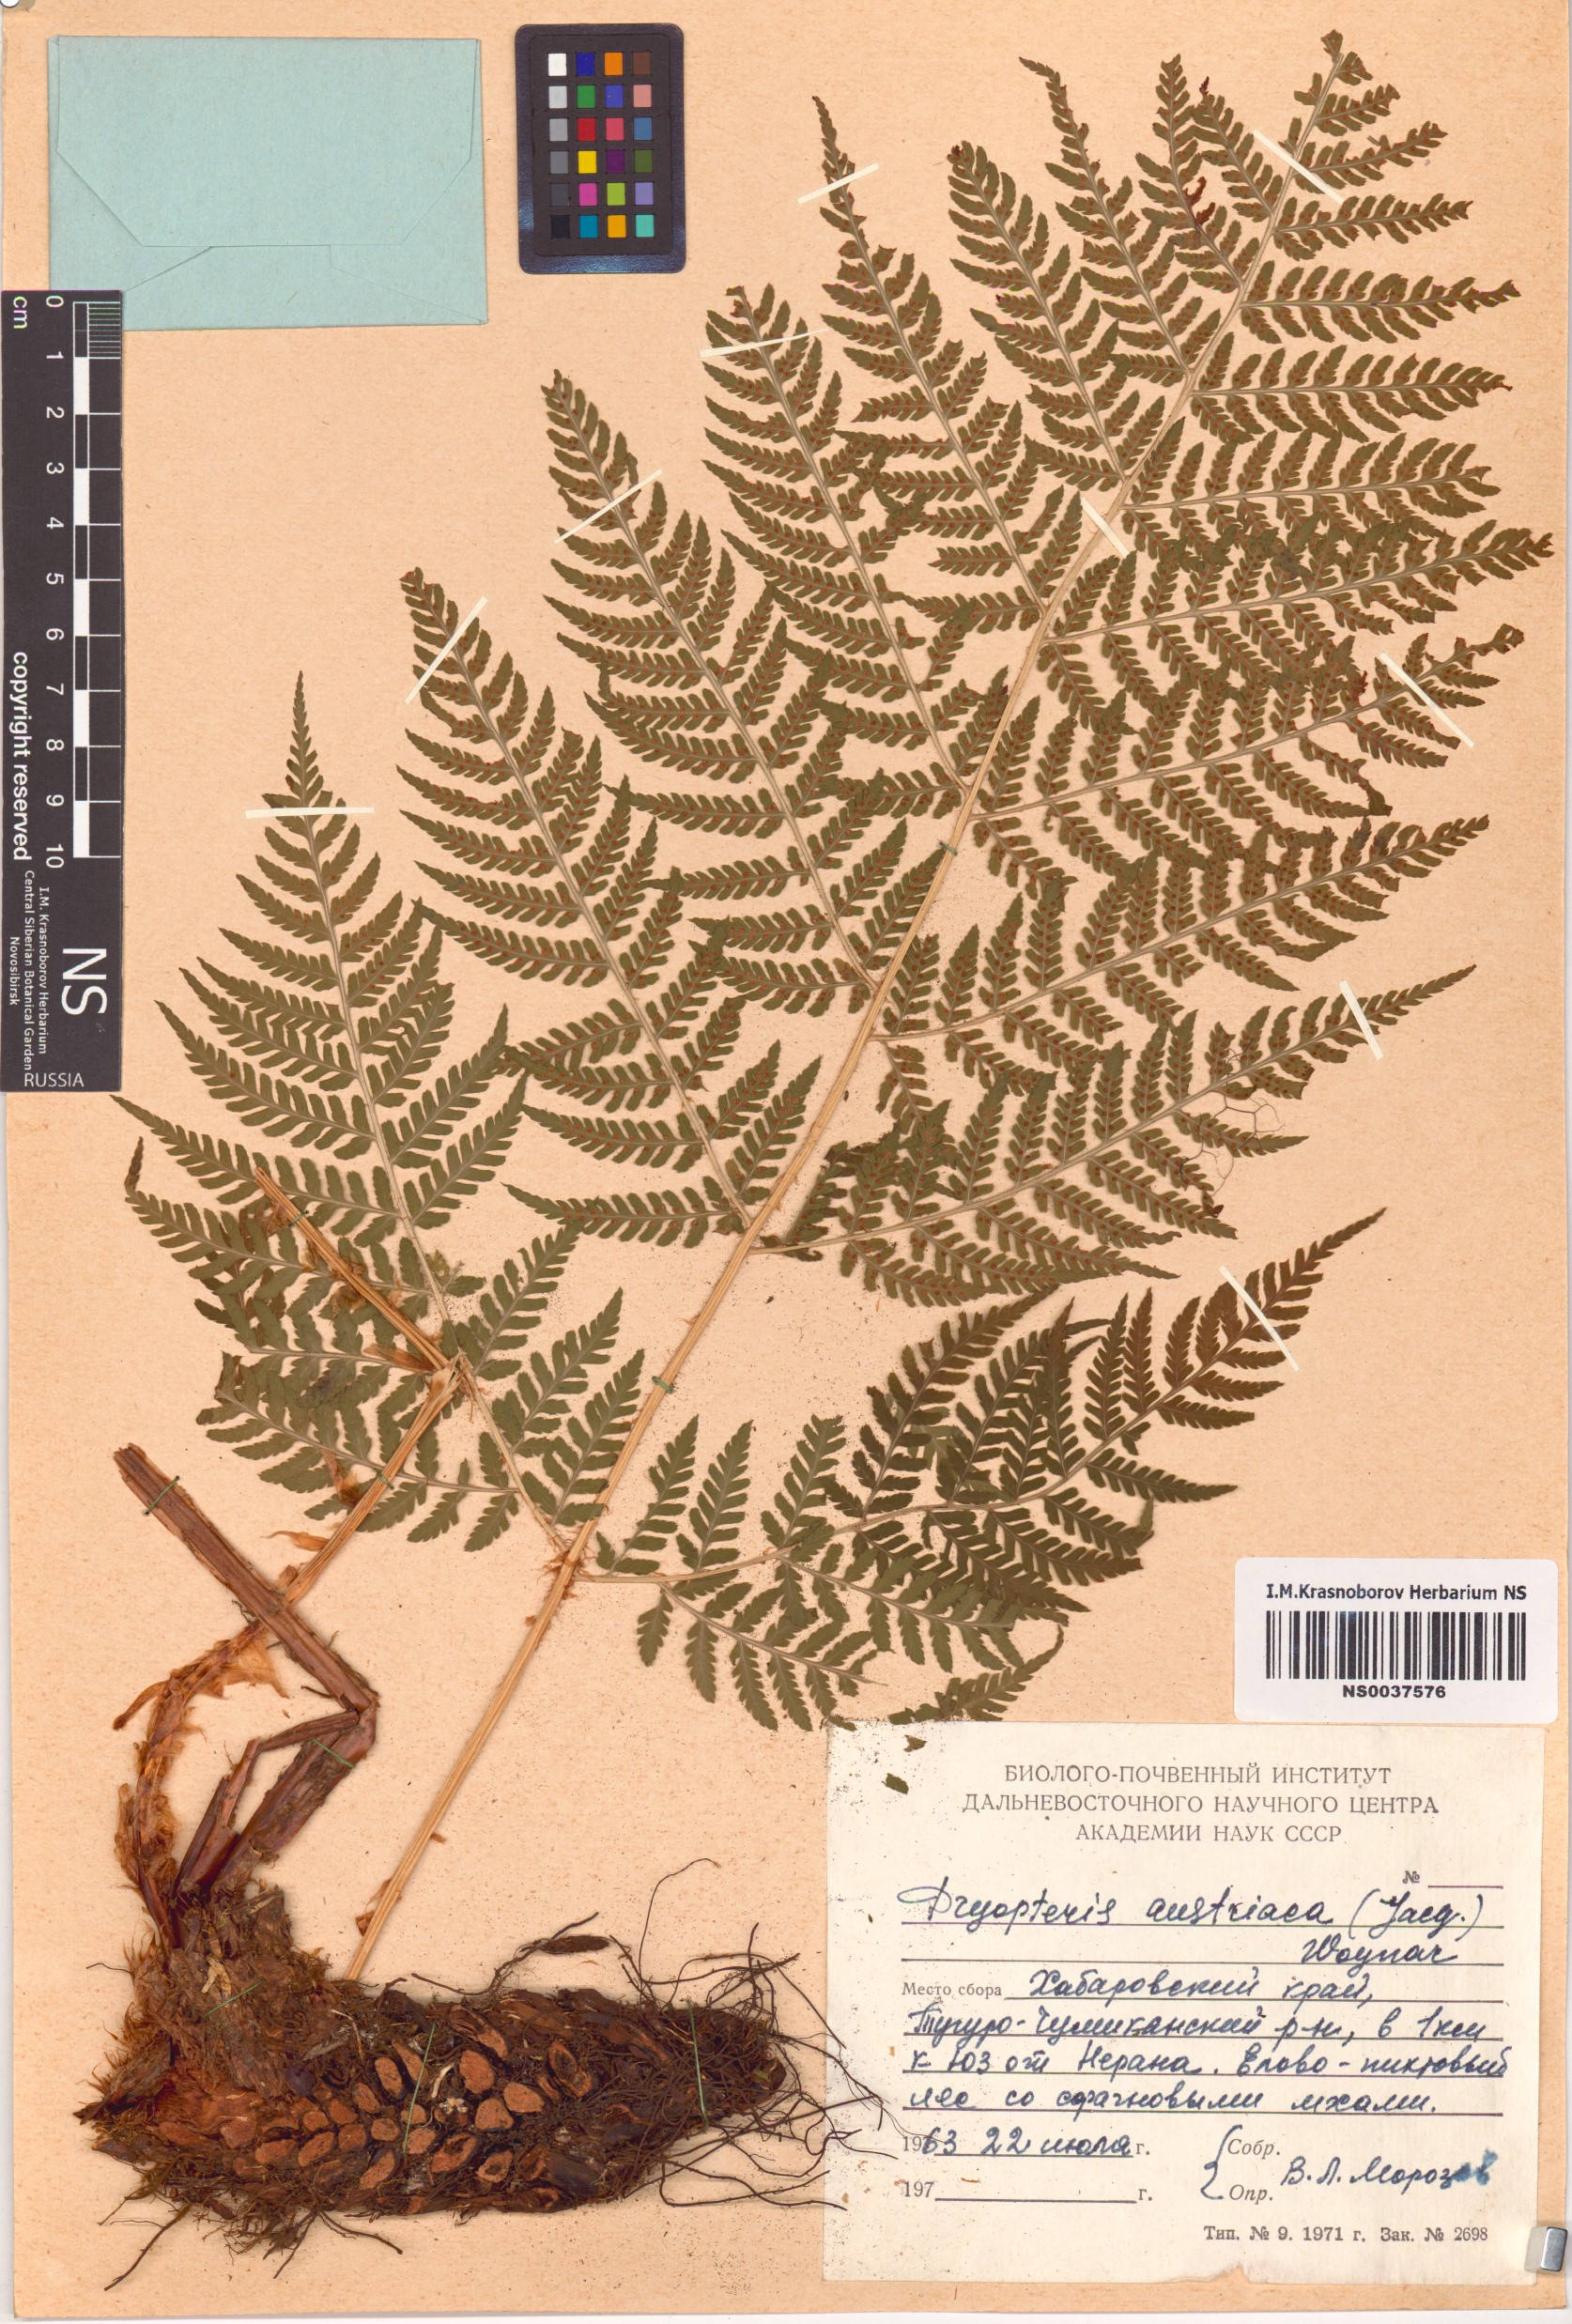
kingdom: Plantae
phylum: Tracheophyta
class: Polypodiopsida
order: Polypodiales
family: Dryopteridaceae
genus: Dryopteris
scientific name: Dryopteris dilatata
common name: Broad buckler-fern
